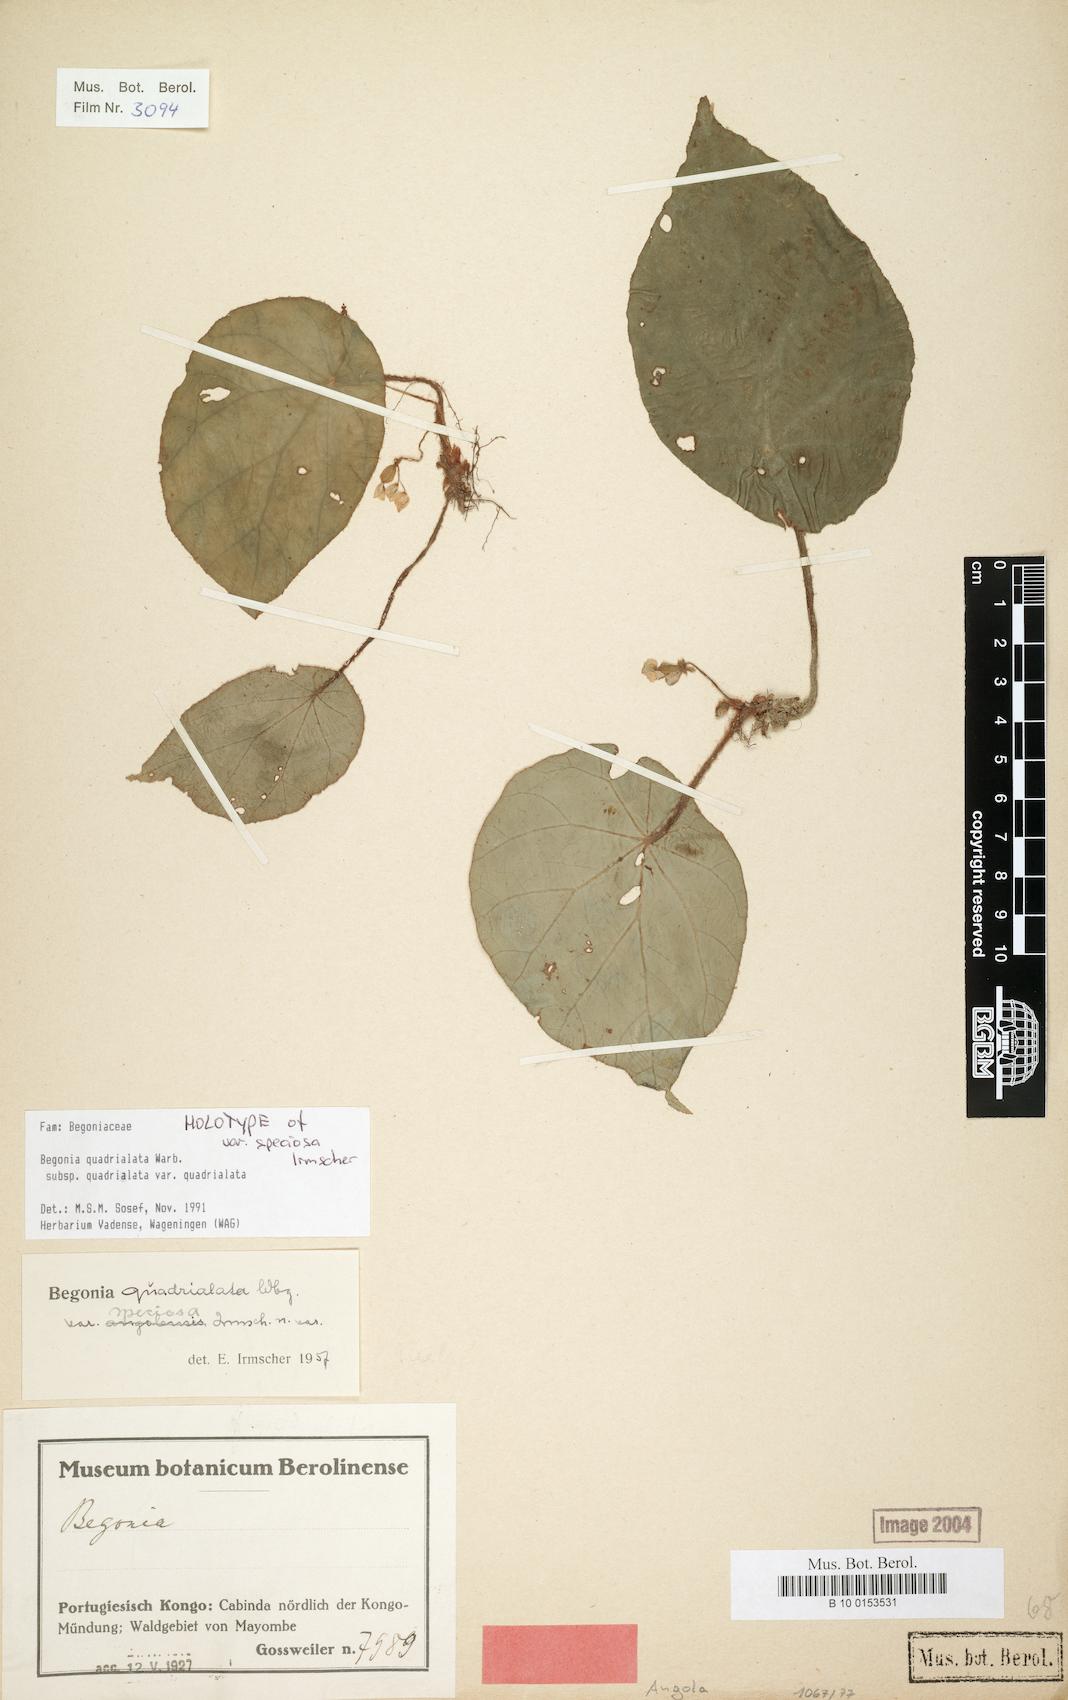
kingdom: Plantae
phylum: Tracheophyta
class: Magnoliopsida
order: Cucurbitales
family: Begoniaceae
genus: Begonia
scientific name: Begonia quadrialata
